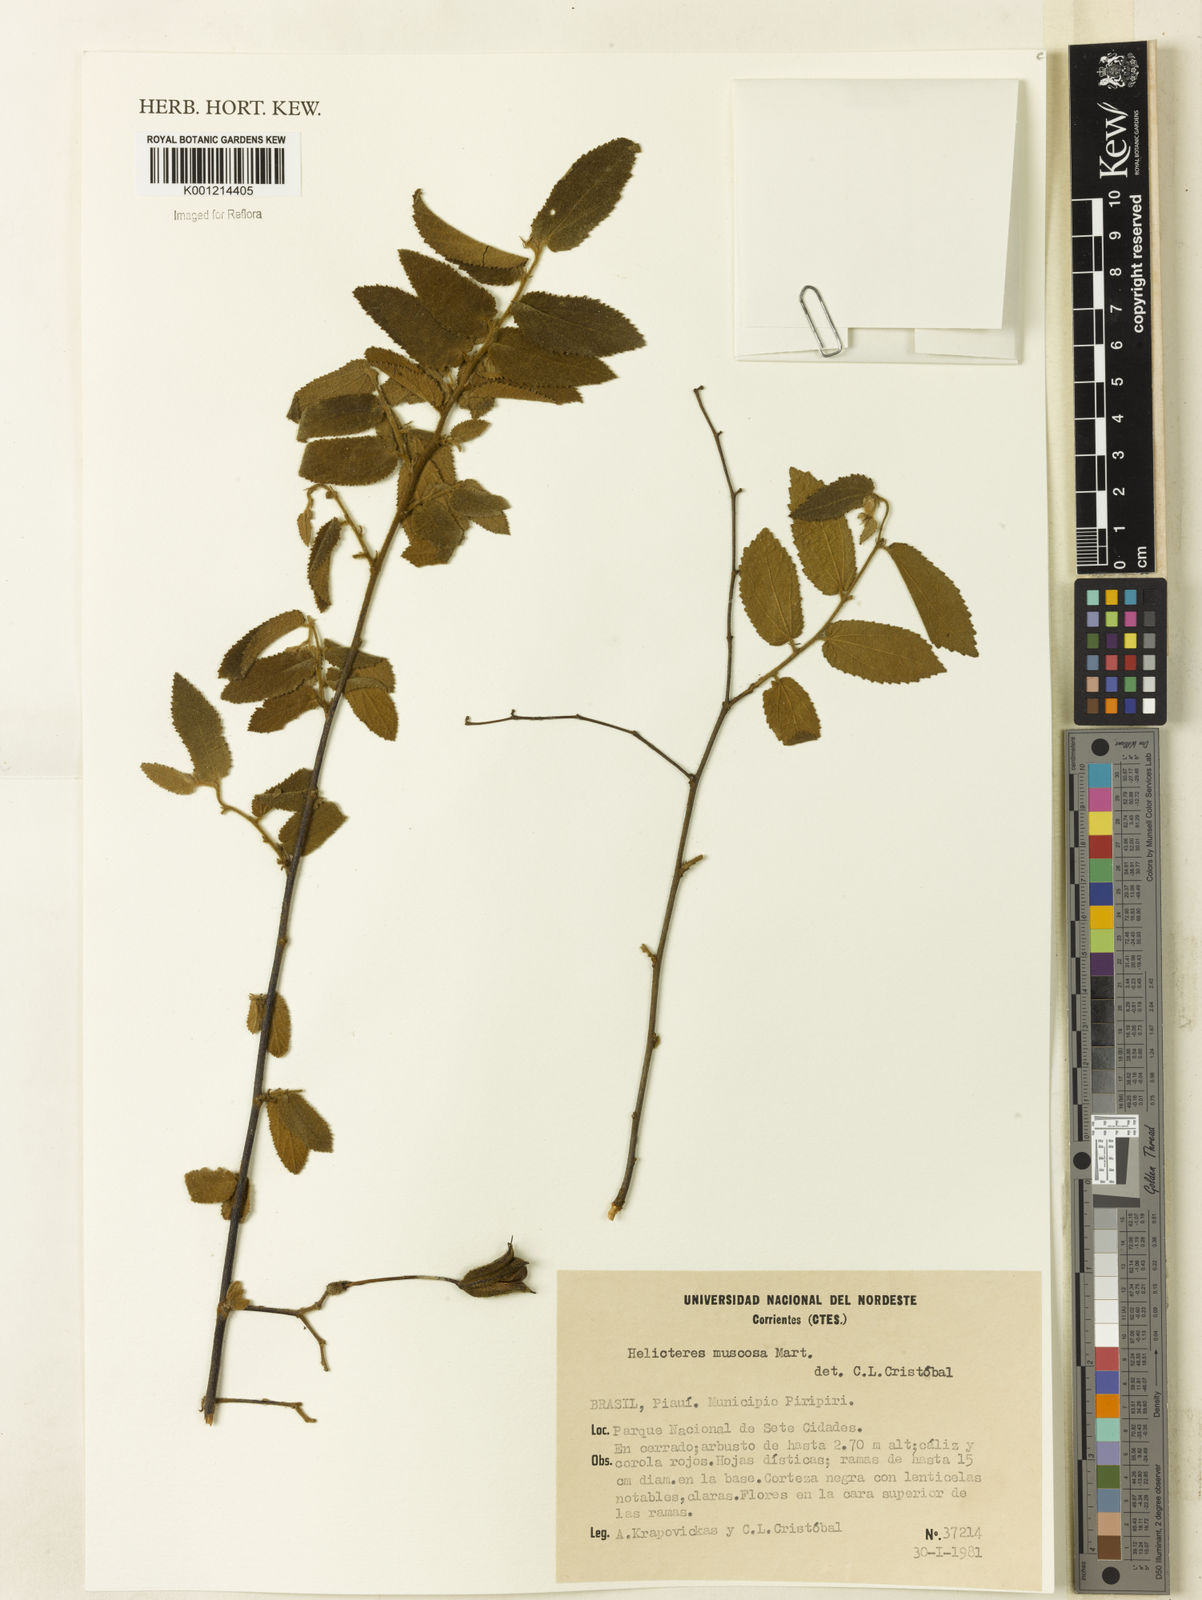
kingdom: Plantae
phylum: Tracheophyta
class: Magnoliopsida
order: Malvales
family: Malvaceae
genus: Helicteres
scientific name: Helicteres muscosa
